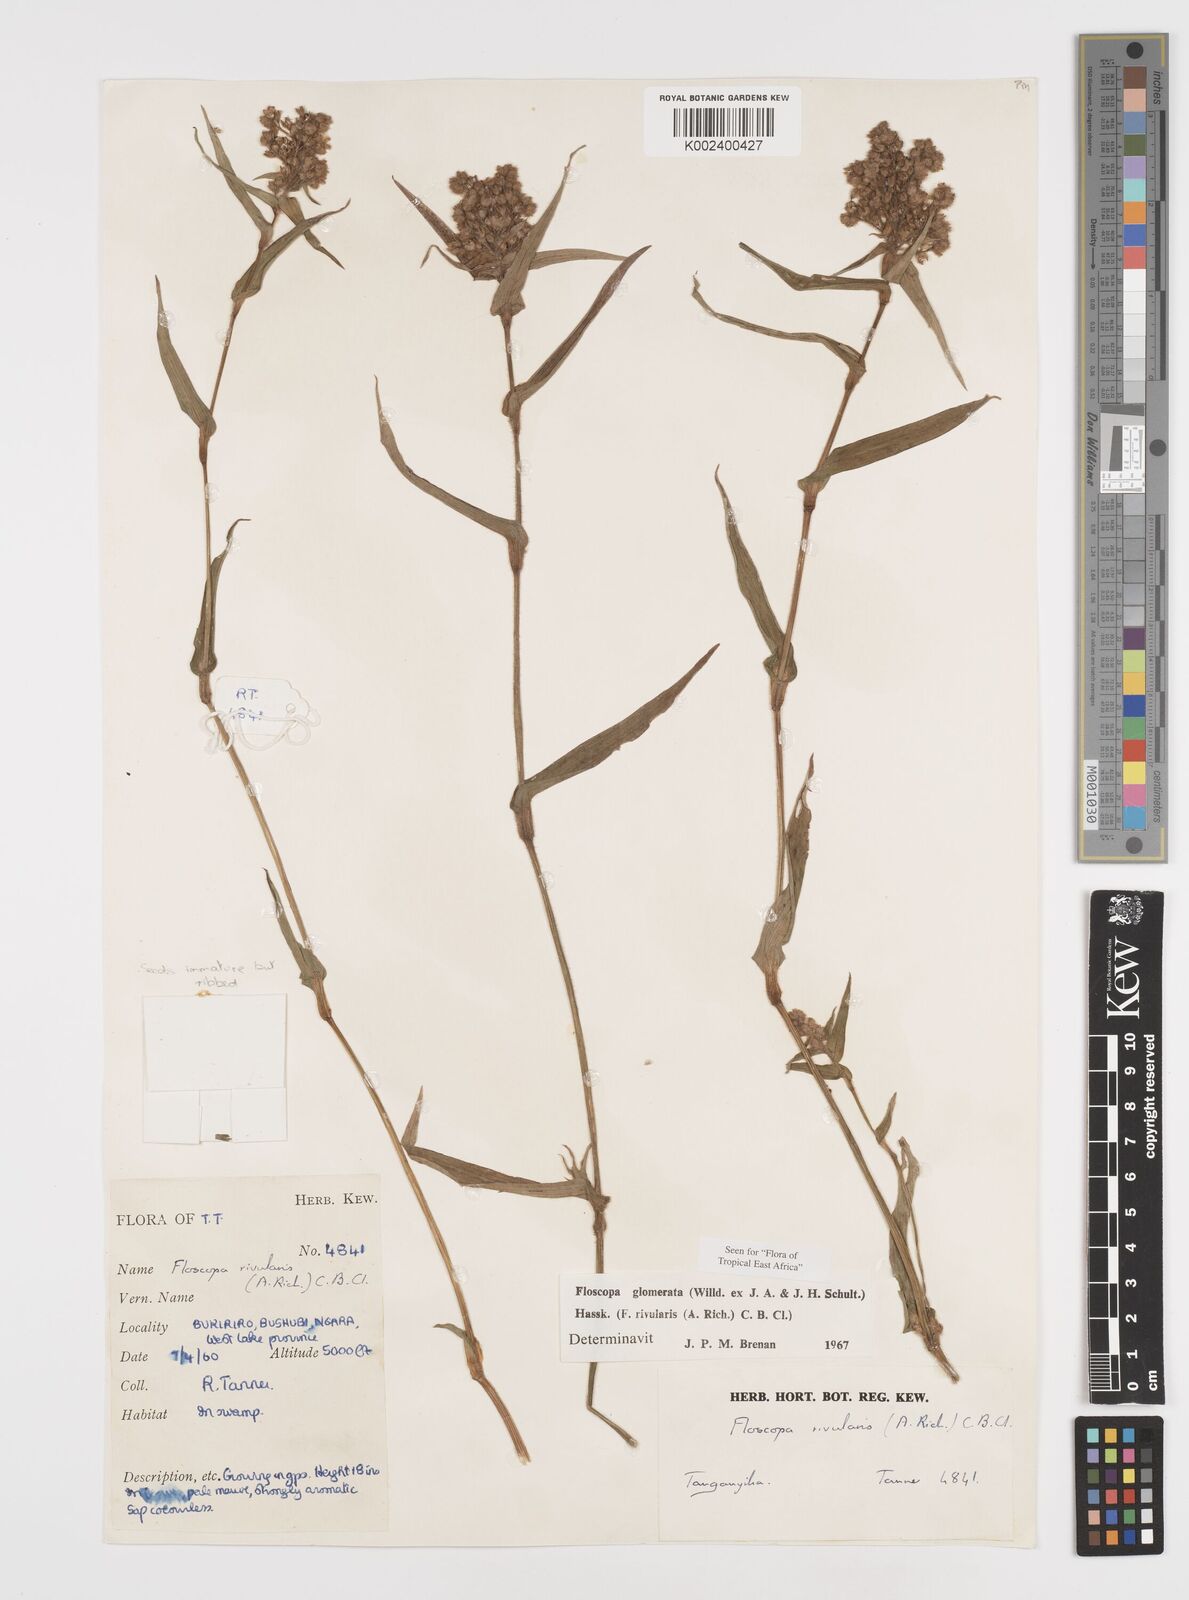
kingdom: Plantae
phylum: Tracheophyta
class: Liliopsida
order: Commelinales
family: Commelinaceae
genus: Floscopa
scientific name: Floscopa glomerata
